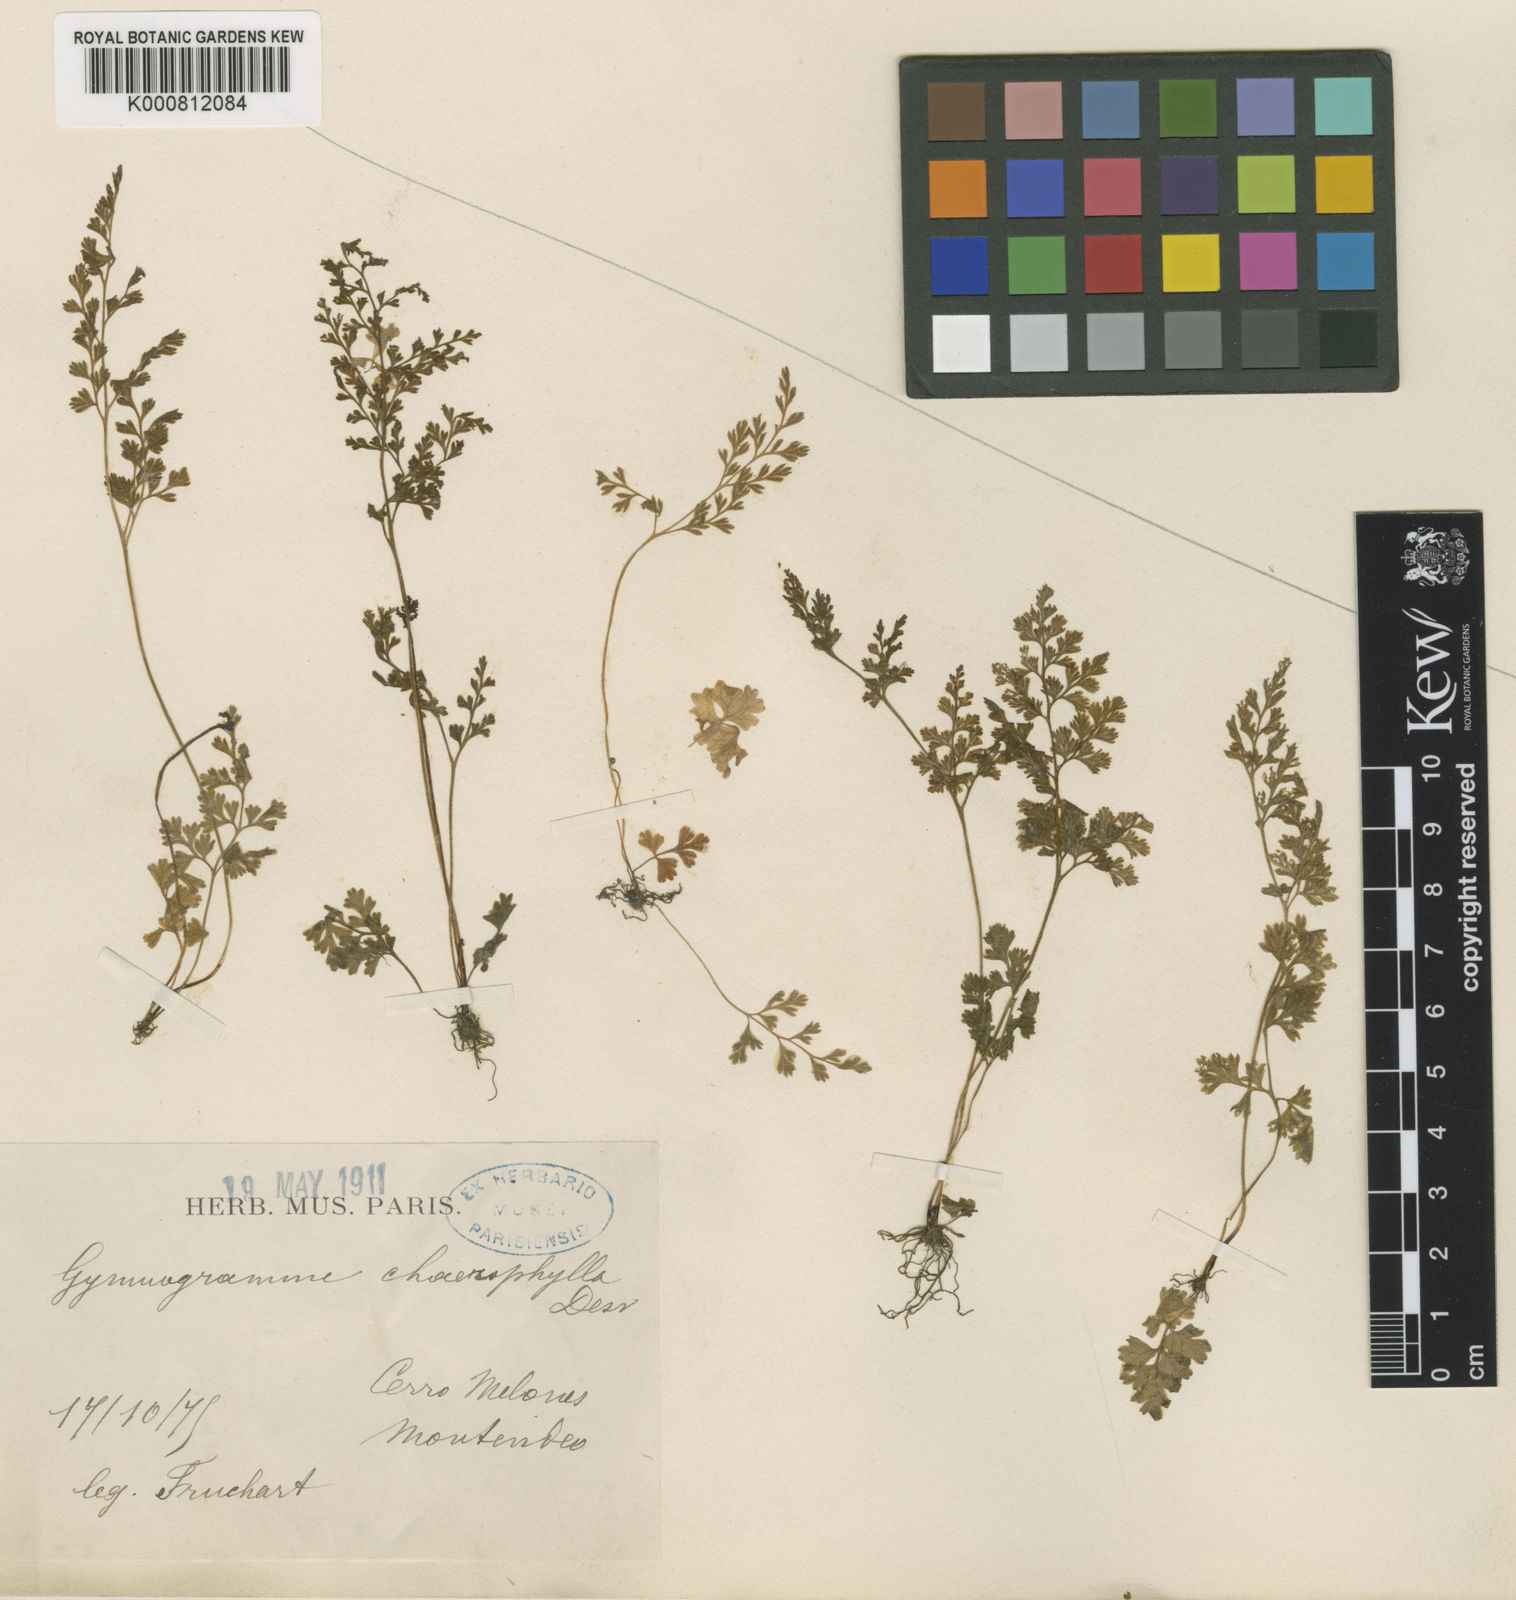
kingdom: Plantae
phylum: Tracheophyta
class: Polypodiopsida
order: Polypodiales
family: Pteridaceae
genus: Gastoniella
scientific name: Gastoniella chaerophylla
